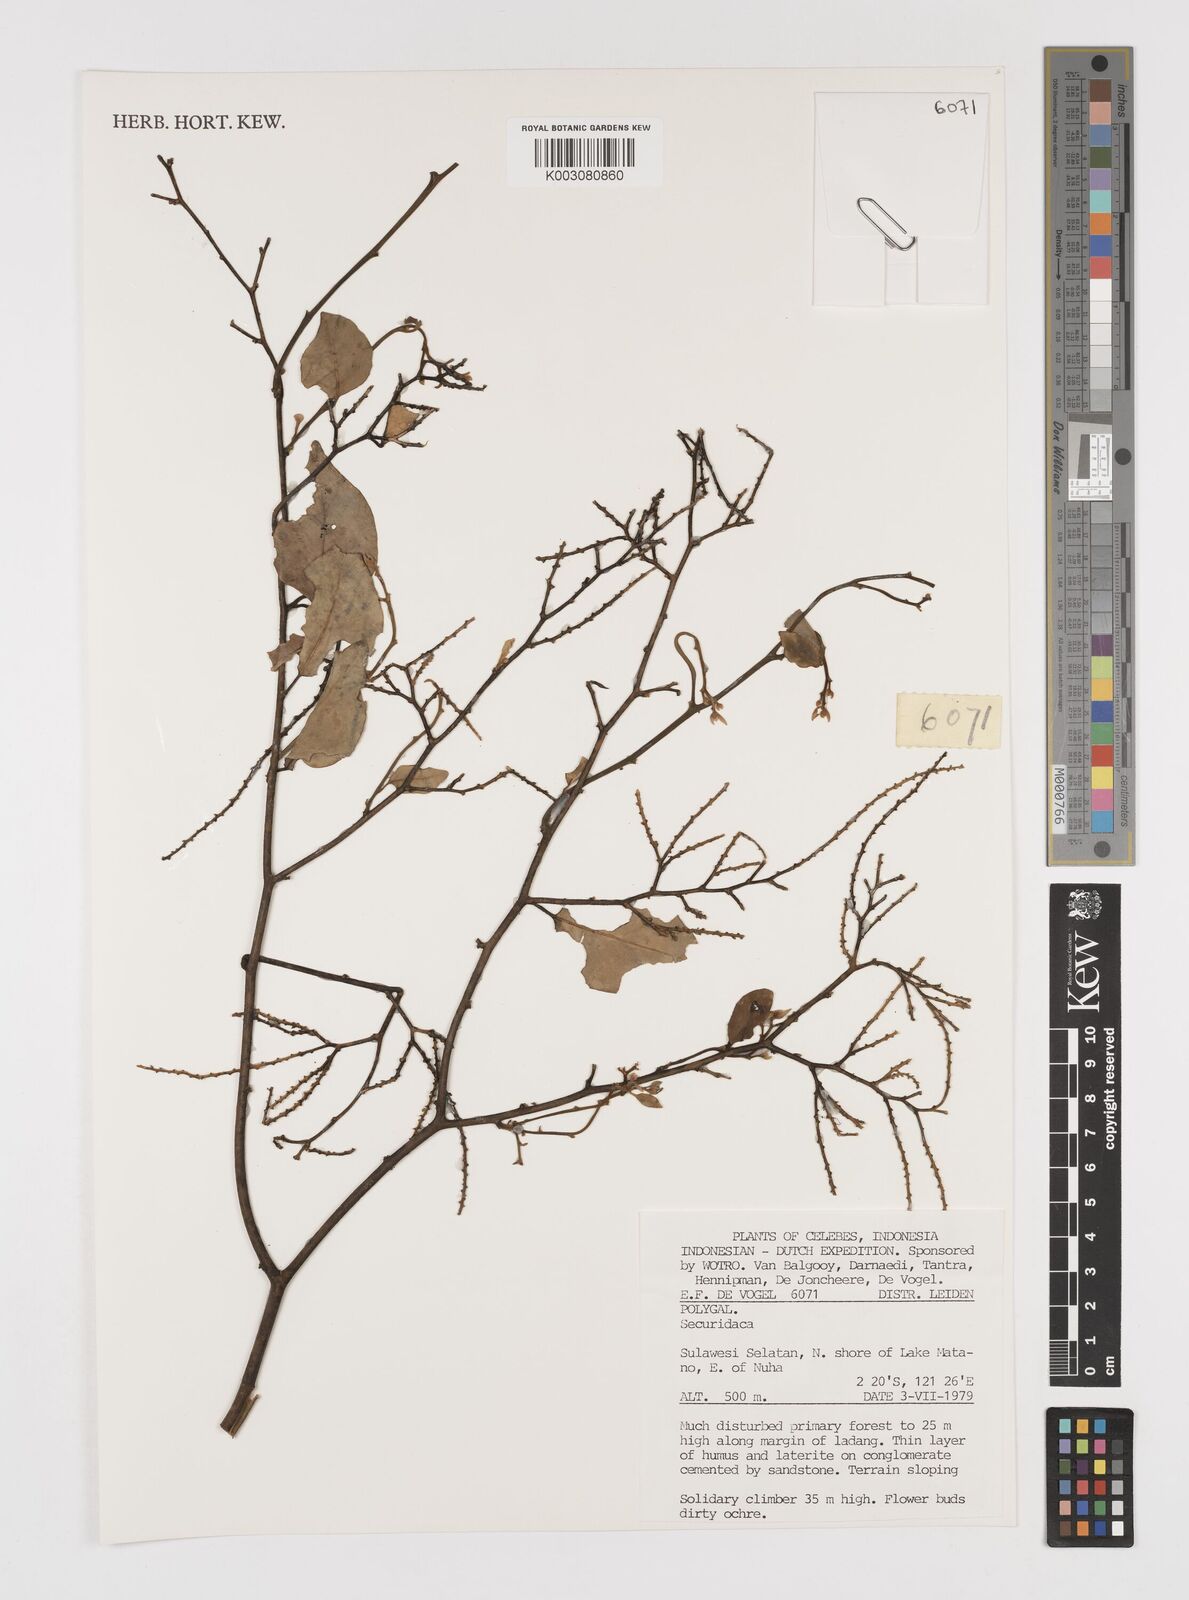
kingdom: Plantae
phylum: Tracheophyta
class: Magnoliopsida
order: Fabales
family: Polygalaceae
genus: Securidaca
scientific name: Securidaca
